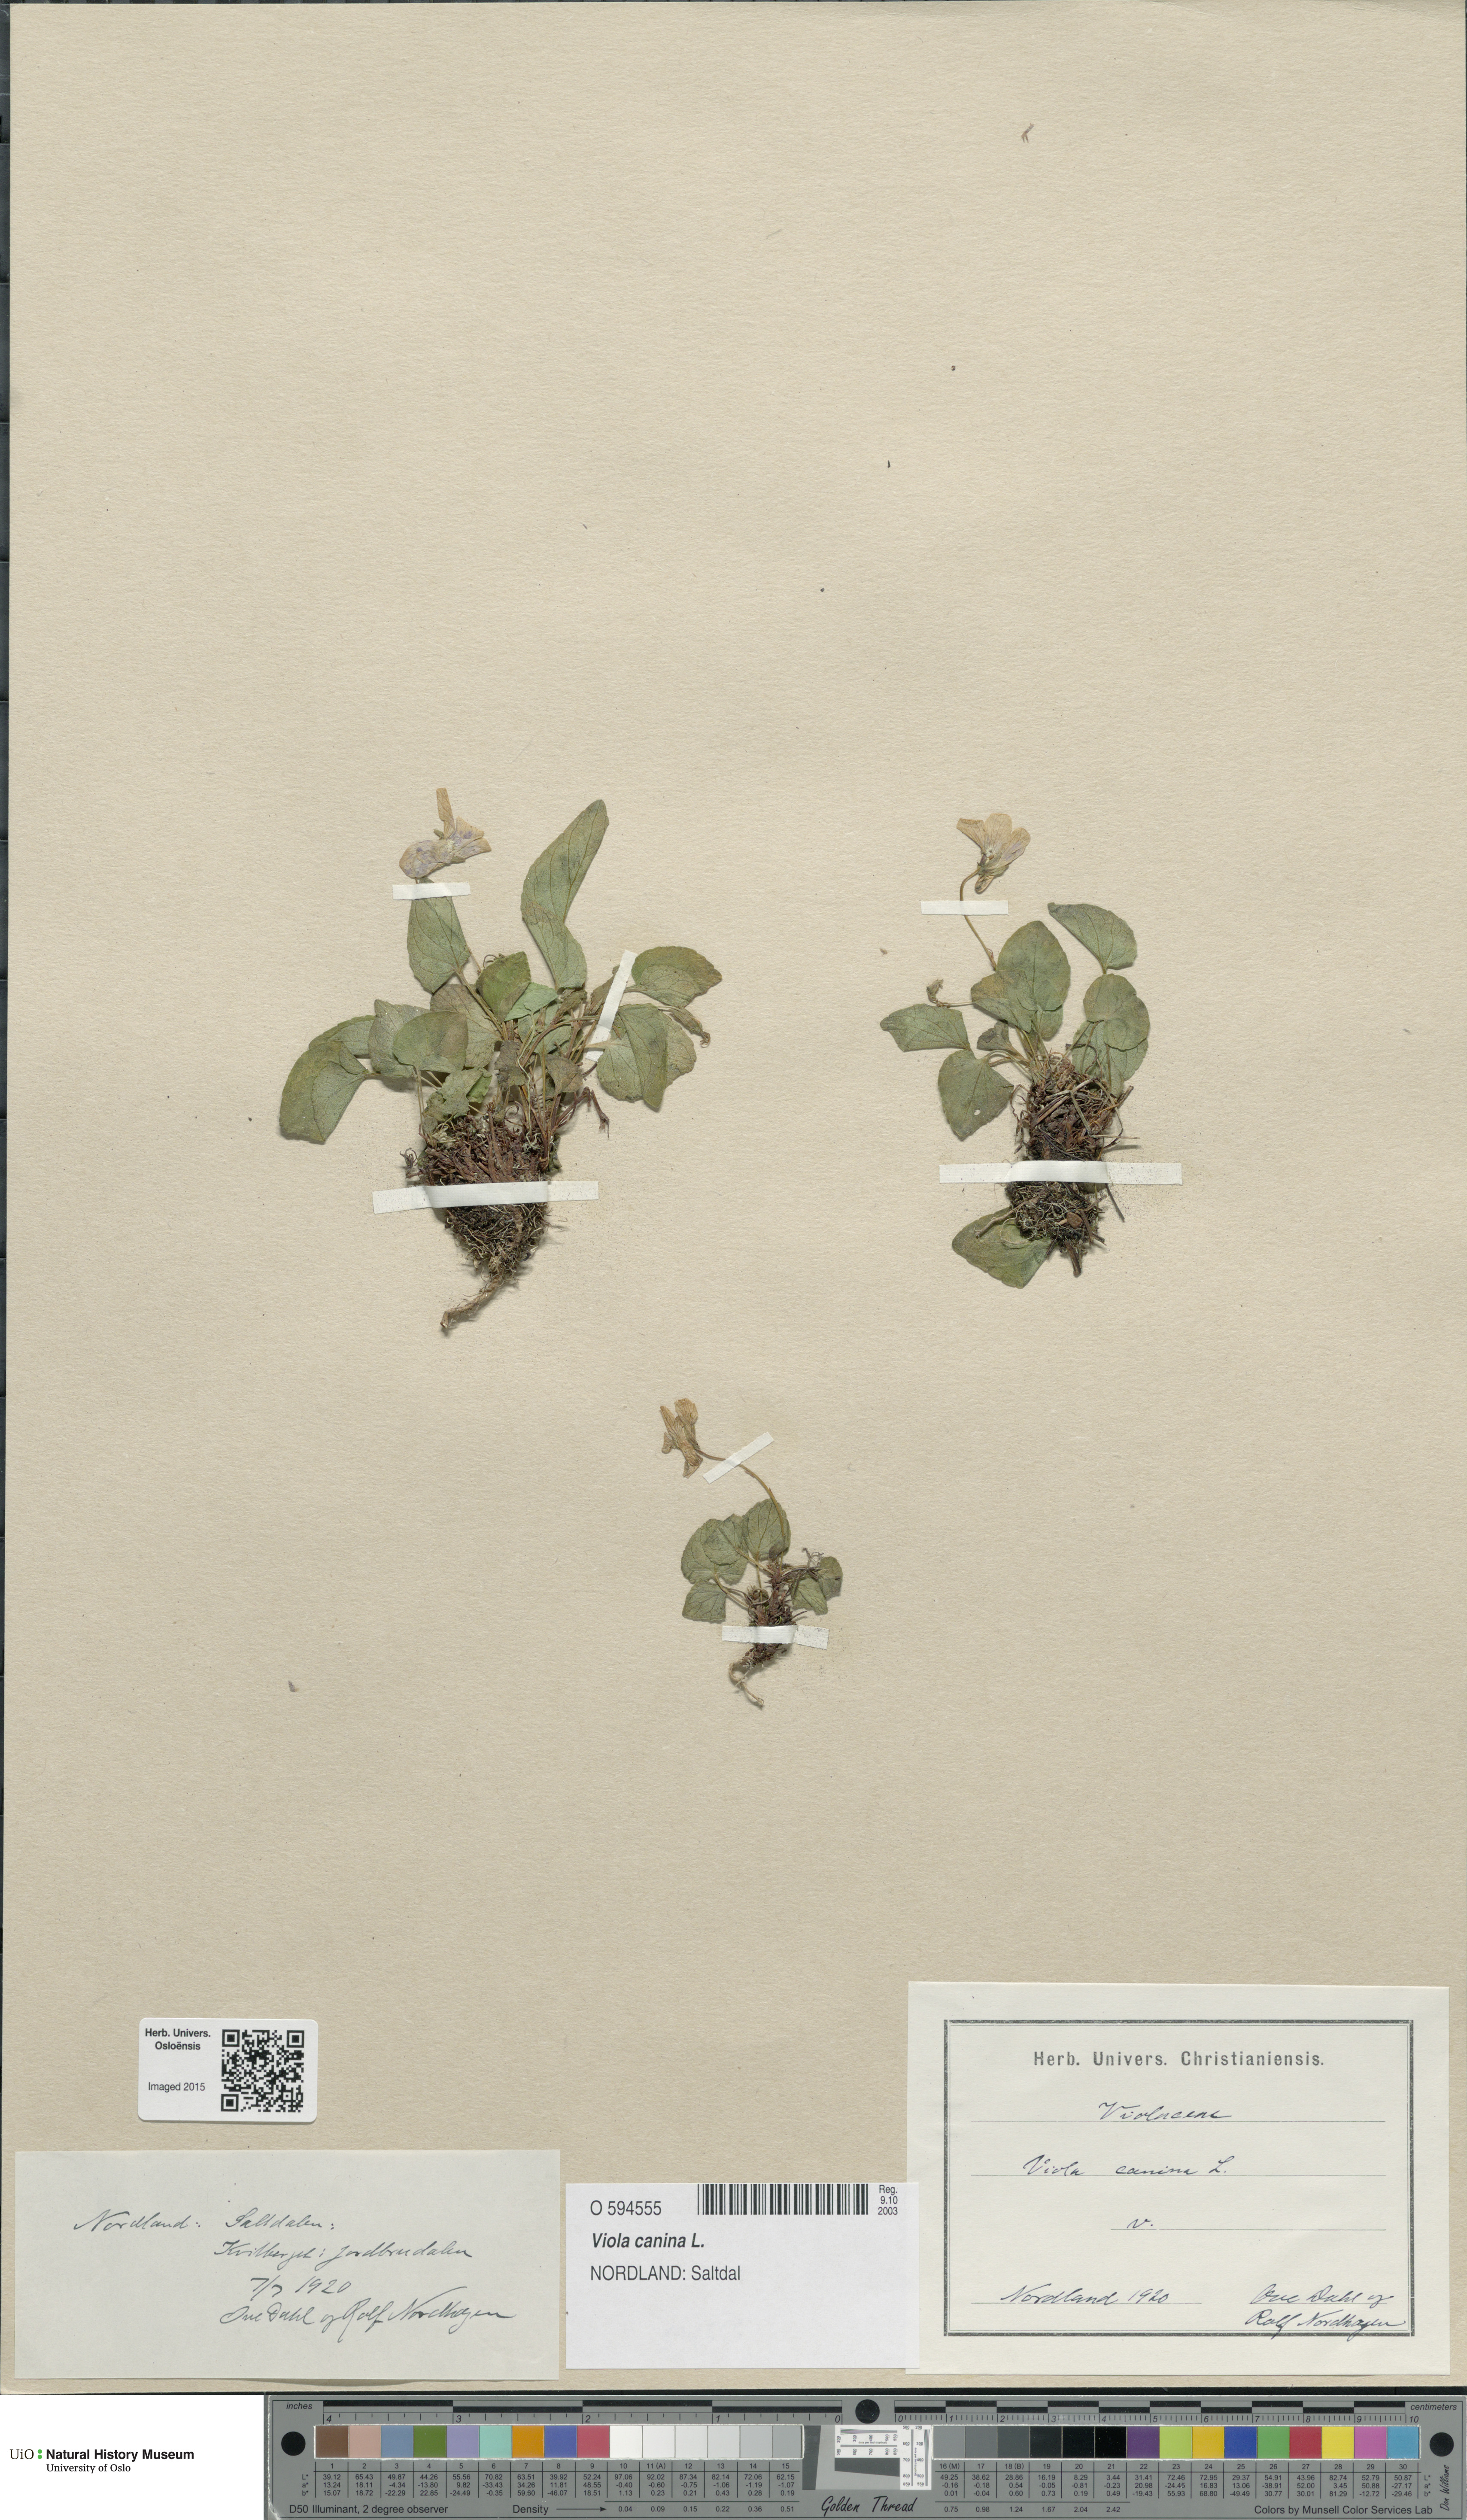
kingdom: Plantae
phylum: Tracheophyta
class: Magnoliopsida
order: Malpighiales
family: Violaceae
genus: Viola
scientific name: Viola canina
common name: Heath dog-violet
